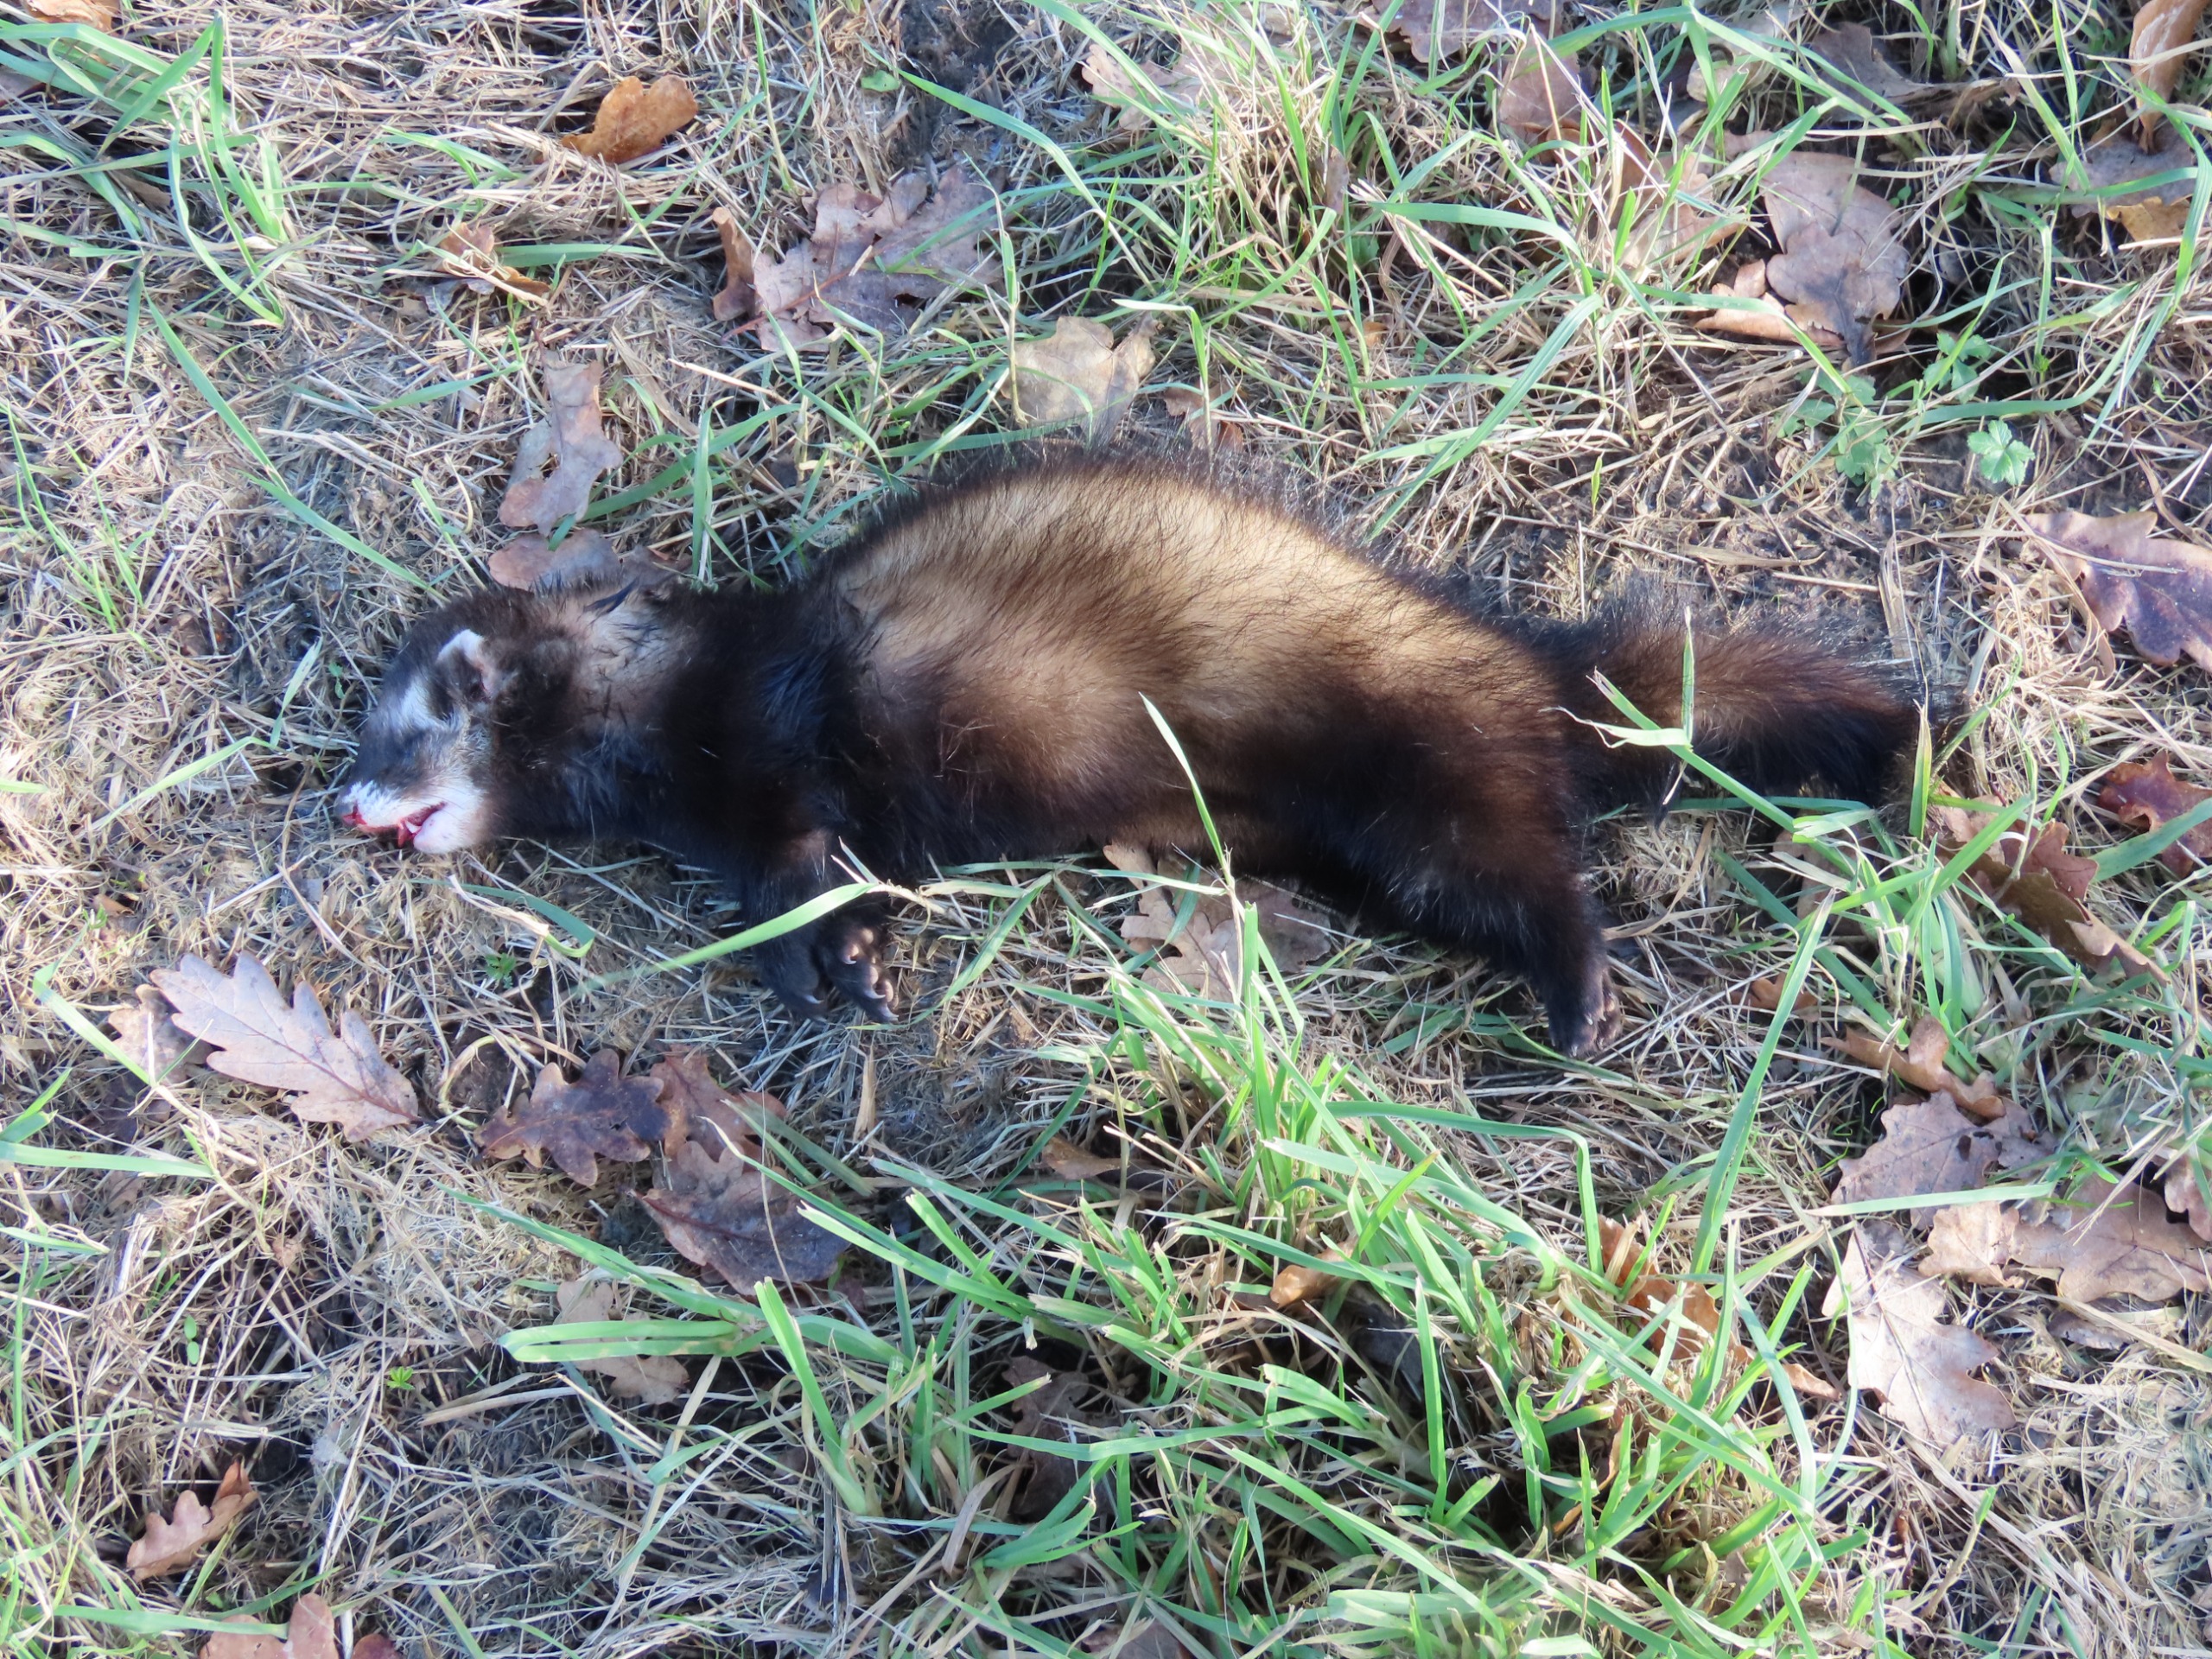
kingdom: Animalia
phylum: Chordata
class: Mammalia
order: Carnivora
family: Mustelidae
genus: Mustela
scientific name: Mustela putorius
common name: Ilder
